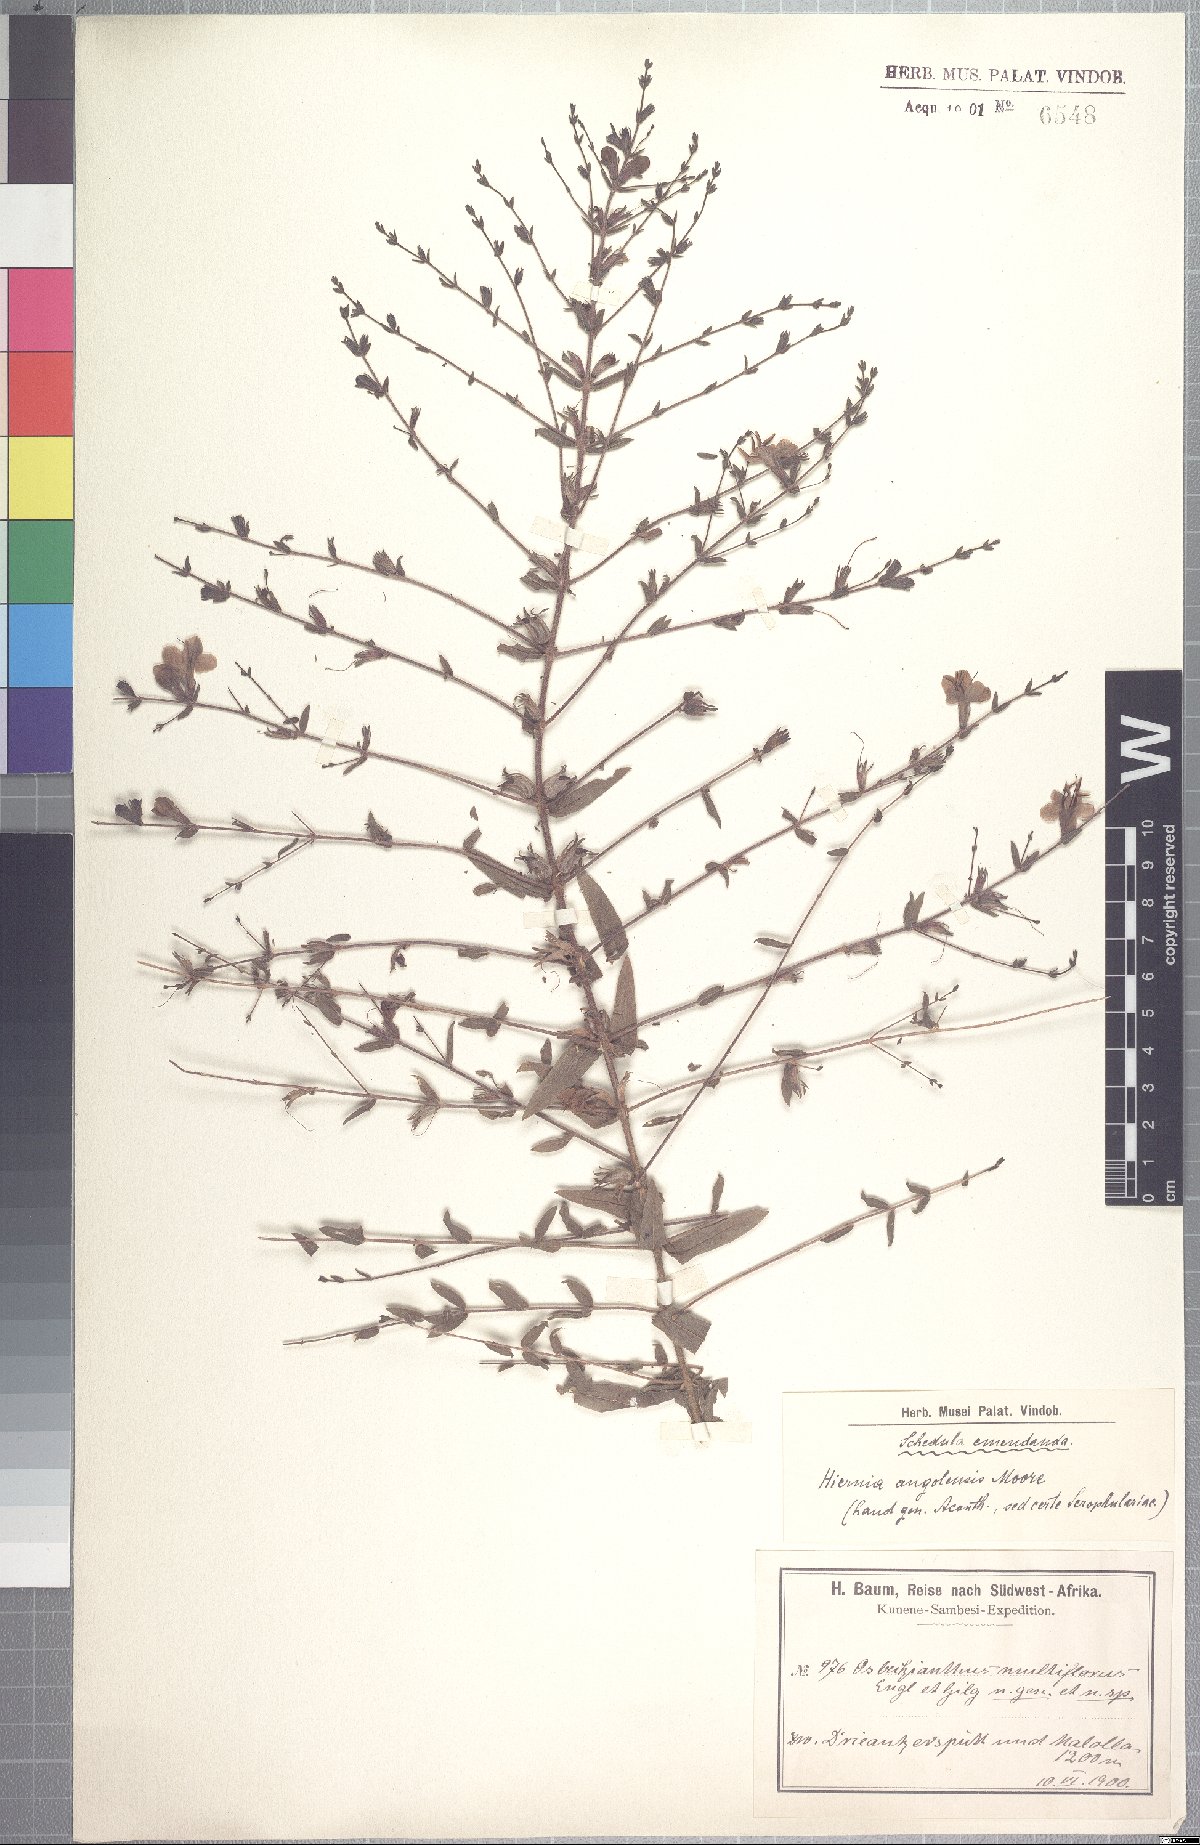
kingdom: Plantae
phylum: Tracheophyta
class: Magnoliopsida
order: Lamiales
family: Orobanchaceae
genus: Hiernia
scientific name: Hiernia angolensis
